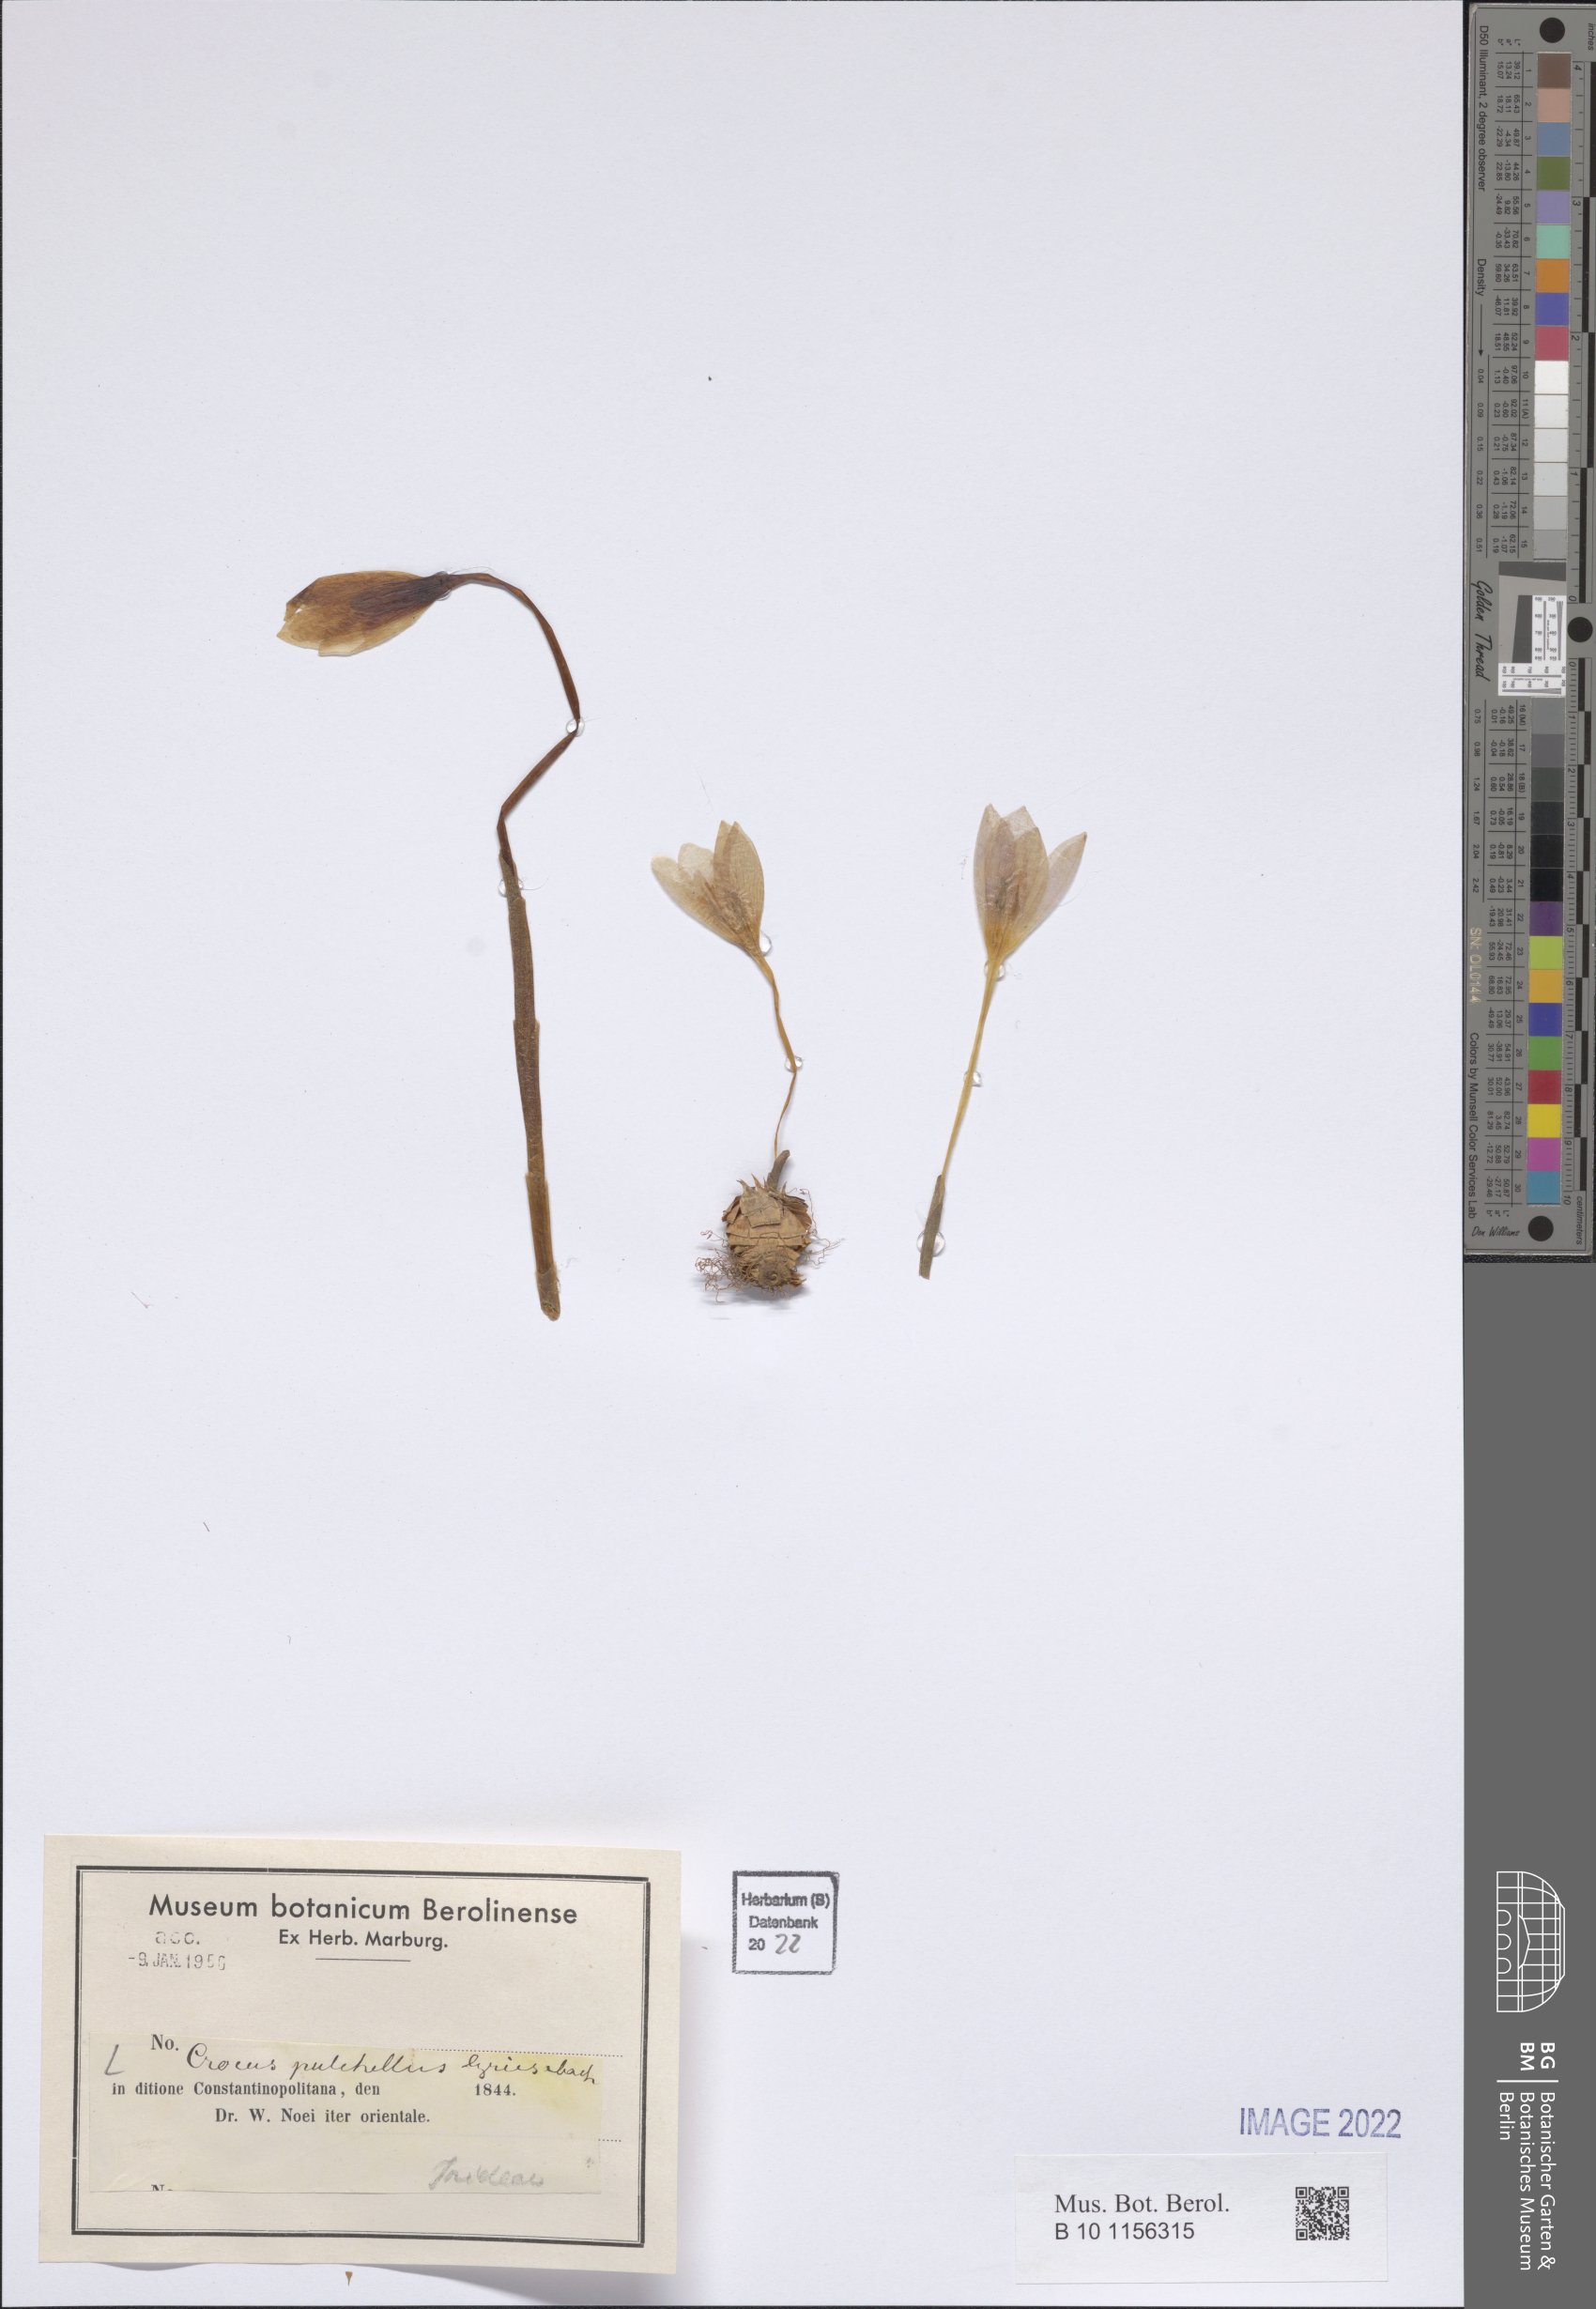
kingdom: Plantae
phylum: Tracheophyta
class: Liliopsida
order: Asparagales
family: Iridaceae
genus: Crocus
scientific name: Crocus pulchellus
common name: Hairy crocus
